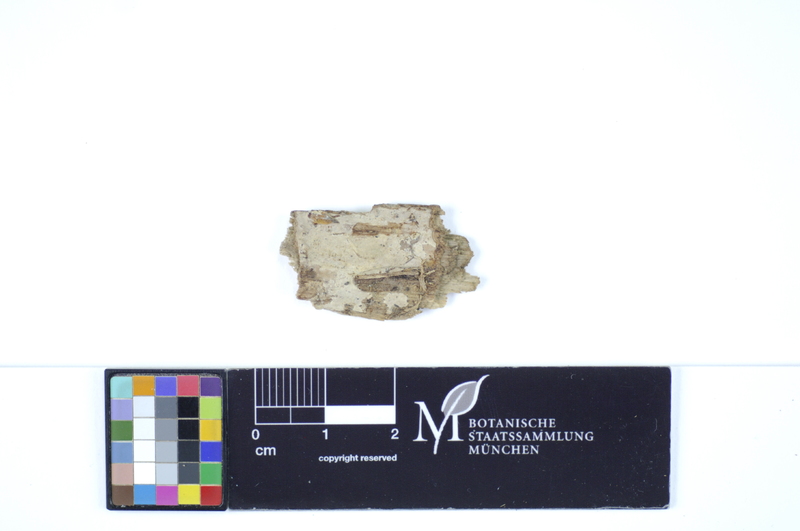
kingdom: Fungi
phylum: Basidiomycota
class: Agaricomycetes
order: Polyporales
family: Hyphodermataceae
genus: Hyphoderma
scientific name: Hyphoderma roseocremeum
